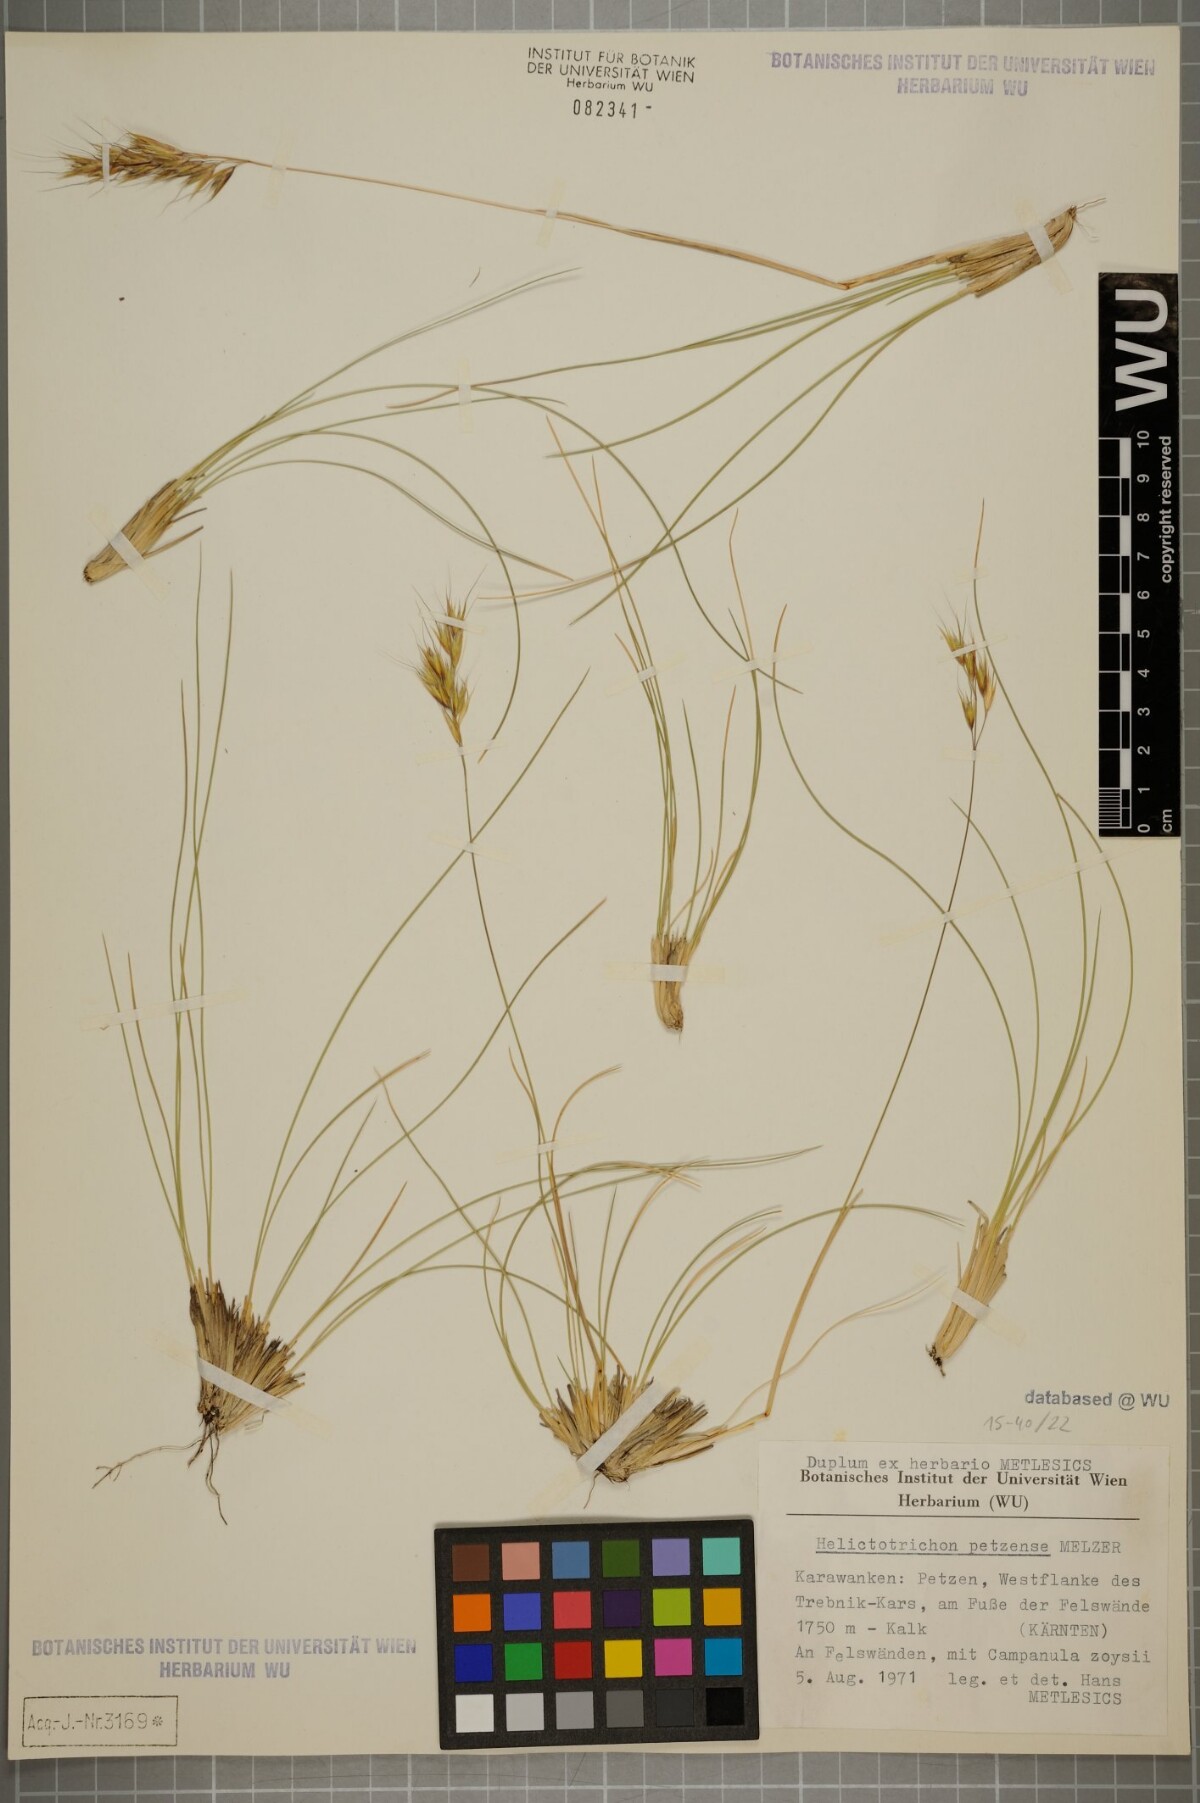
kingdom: Plantae
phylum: Tracheophyta
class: Liliopsida
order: Poales
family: Poaceae
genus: Helictotrichon
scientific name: Helictotrichon petzense
